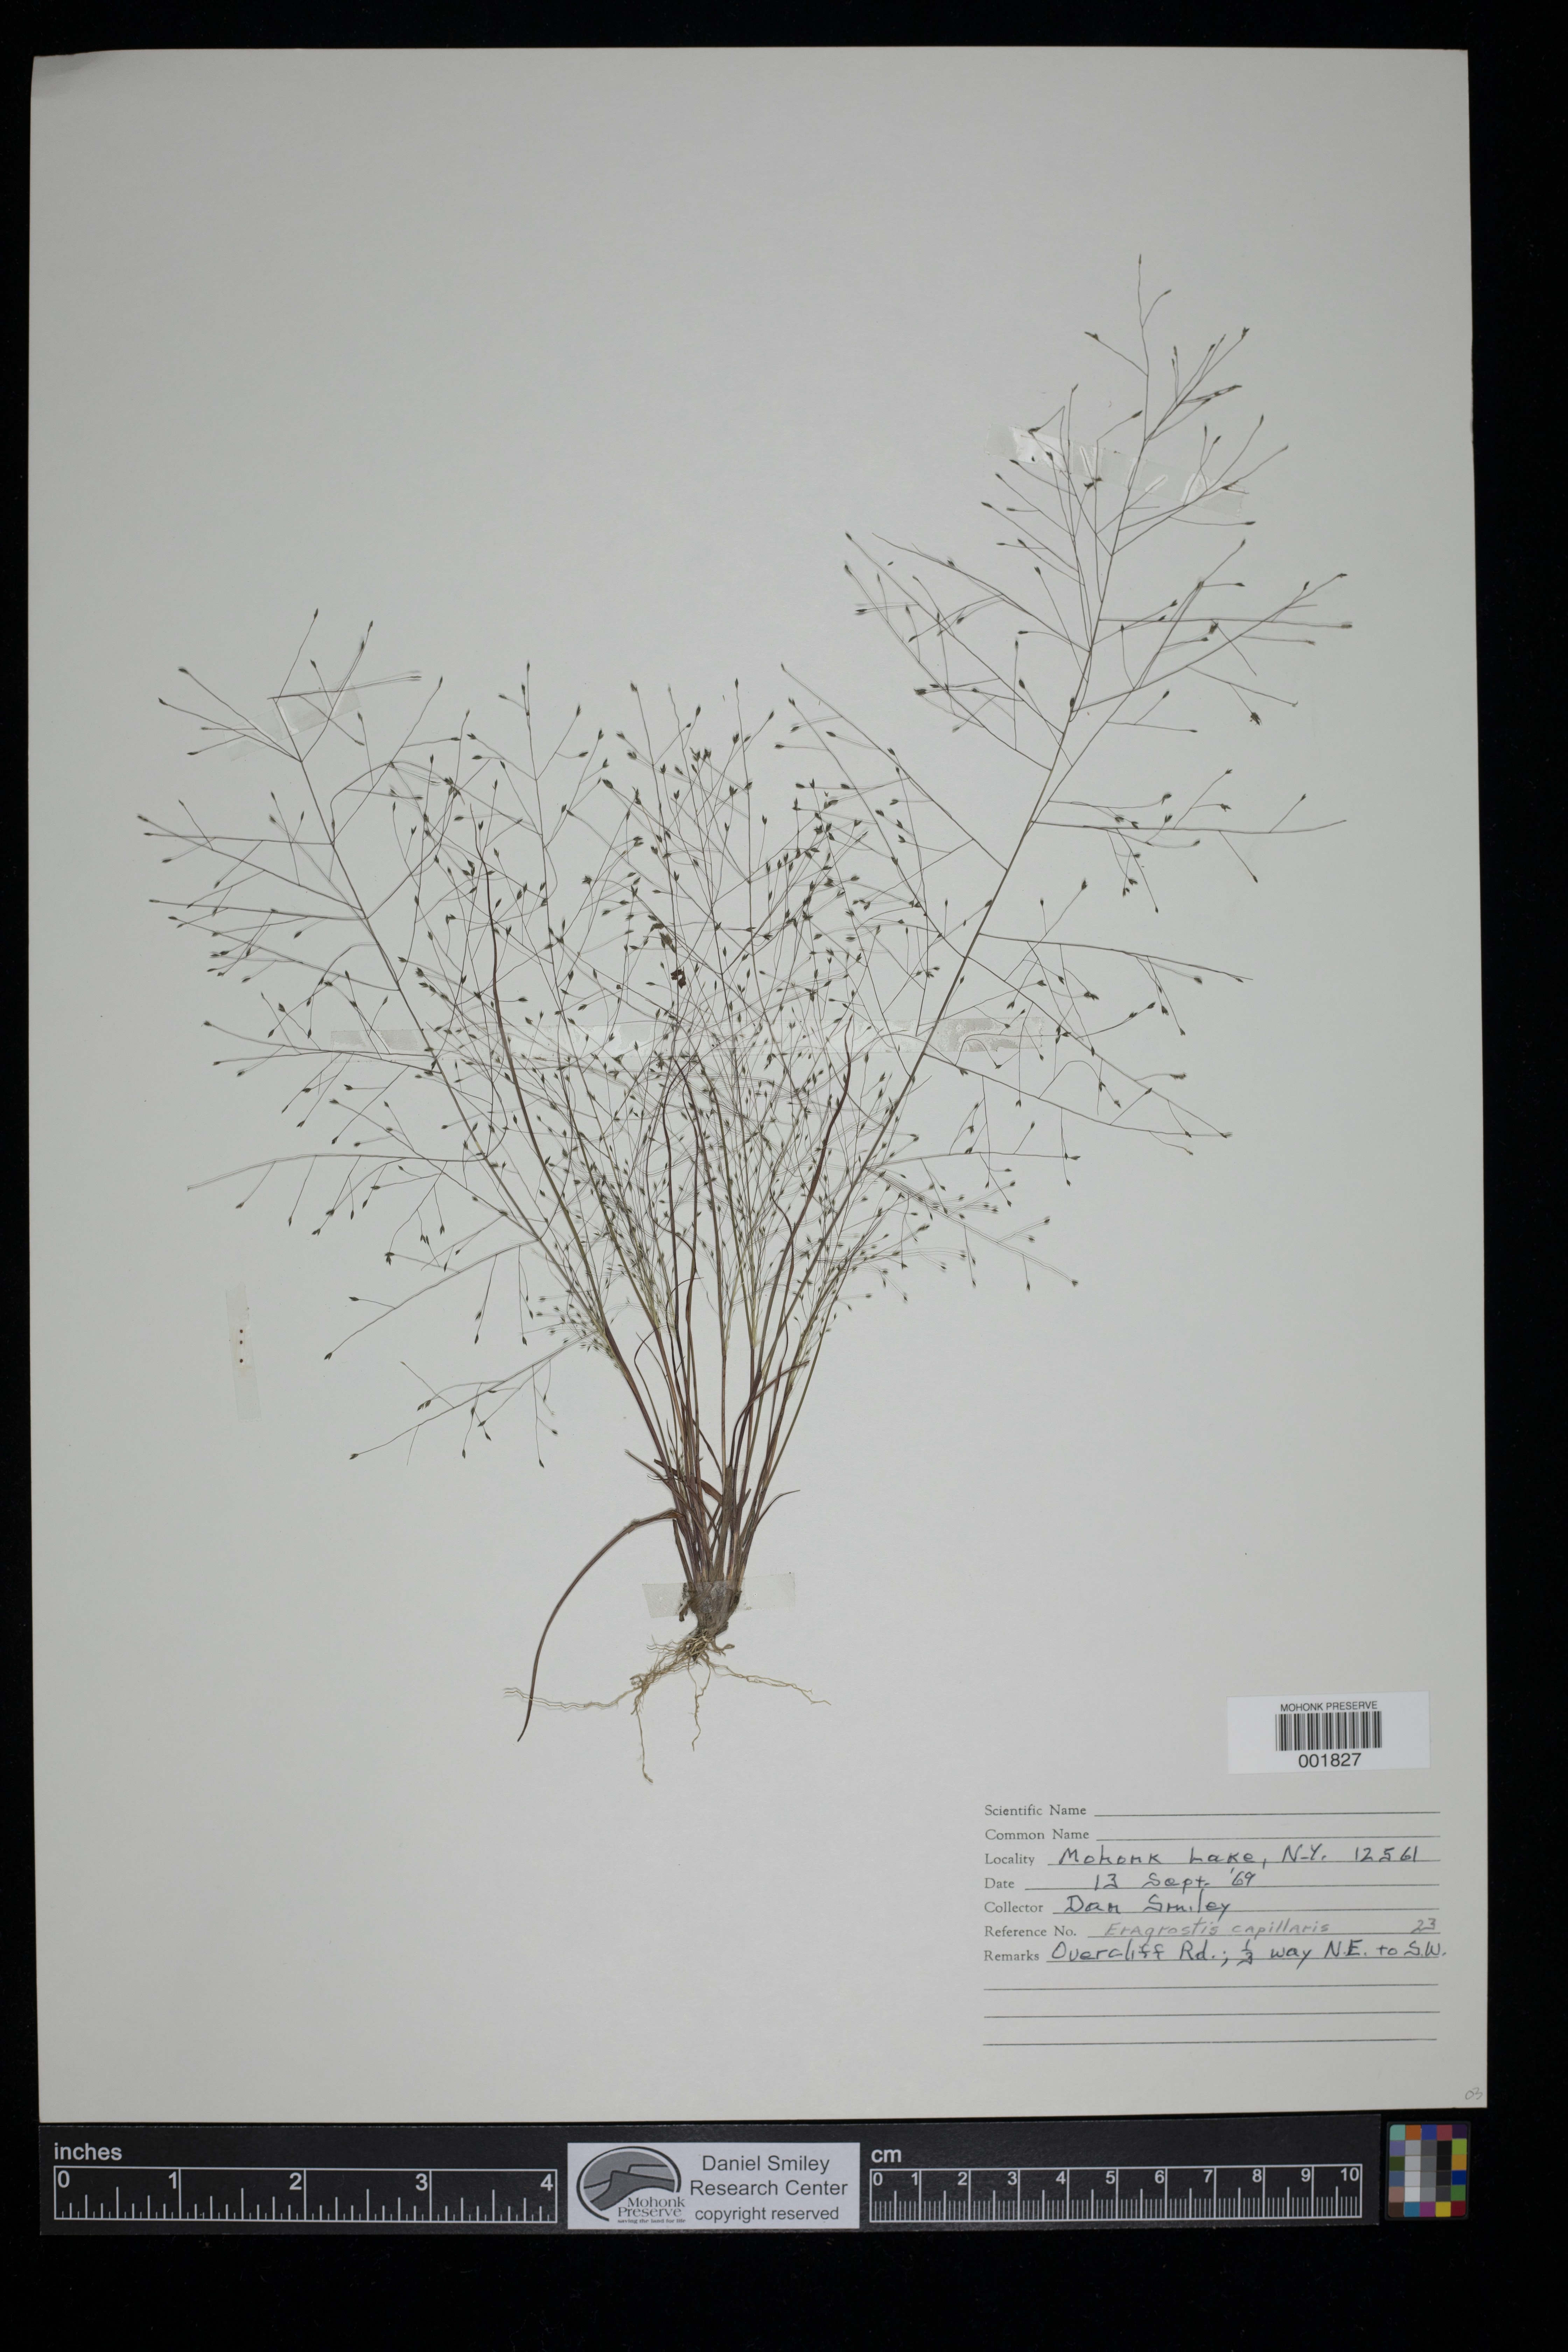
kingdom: Plantae
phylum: Tracheophyta
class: Liliopsida
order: Poales
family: Poaceae
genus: Eragrostis
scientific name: Eragrostis capillaris
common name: Hair-like lovegrass
